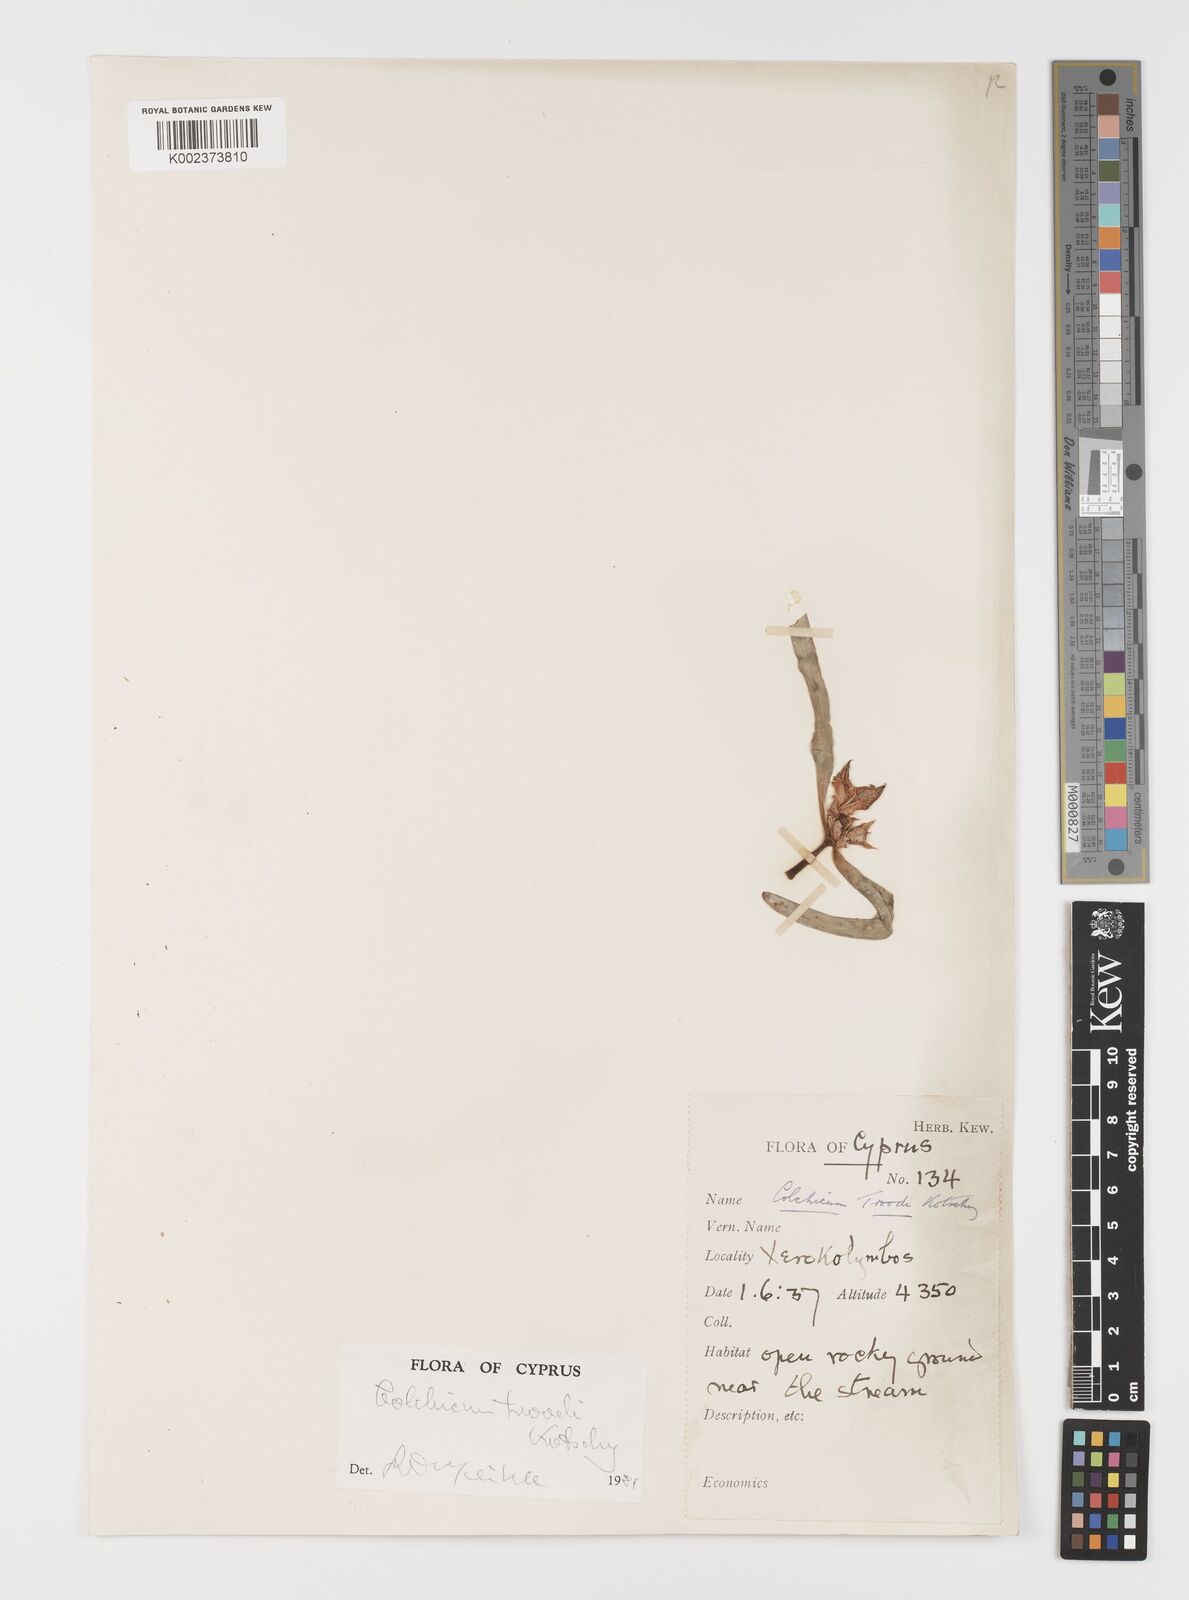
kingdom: Plantae
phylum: Tracheophyta
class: Liliopsida
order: Liliales
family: Colchicaceae
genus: Colchicum
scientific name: Colchicum troodi
